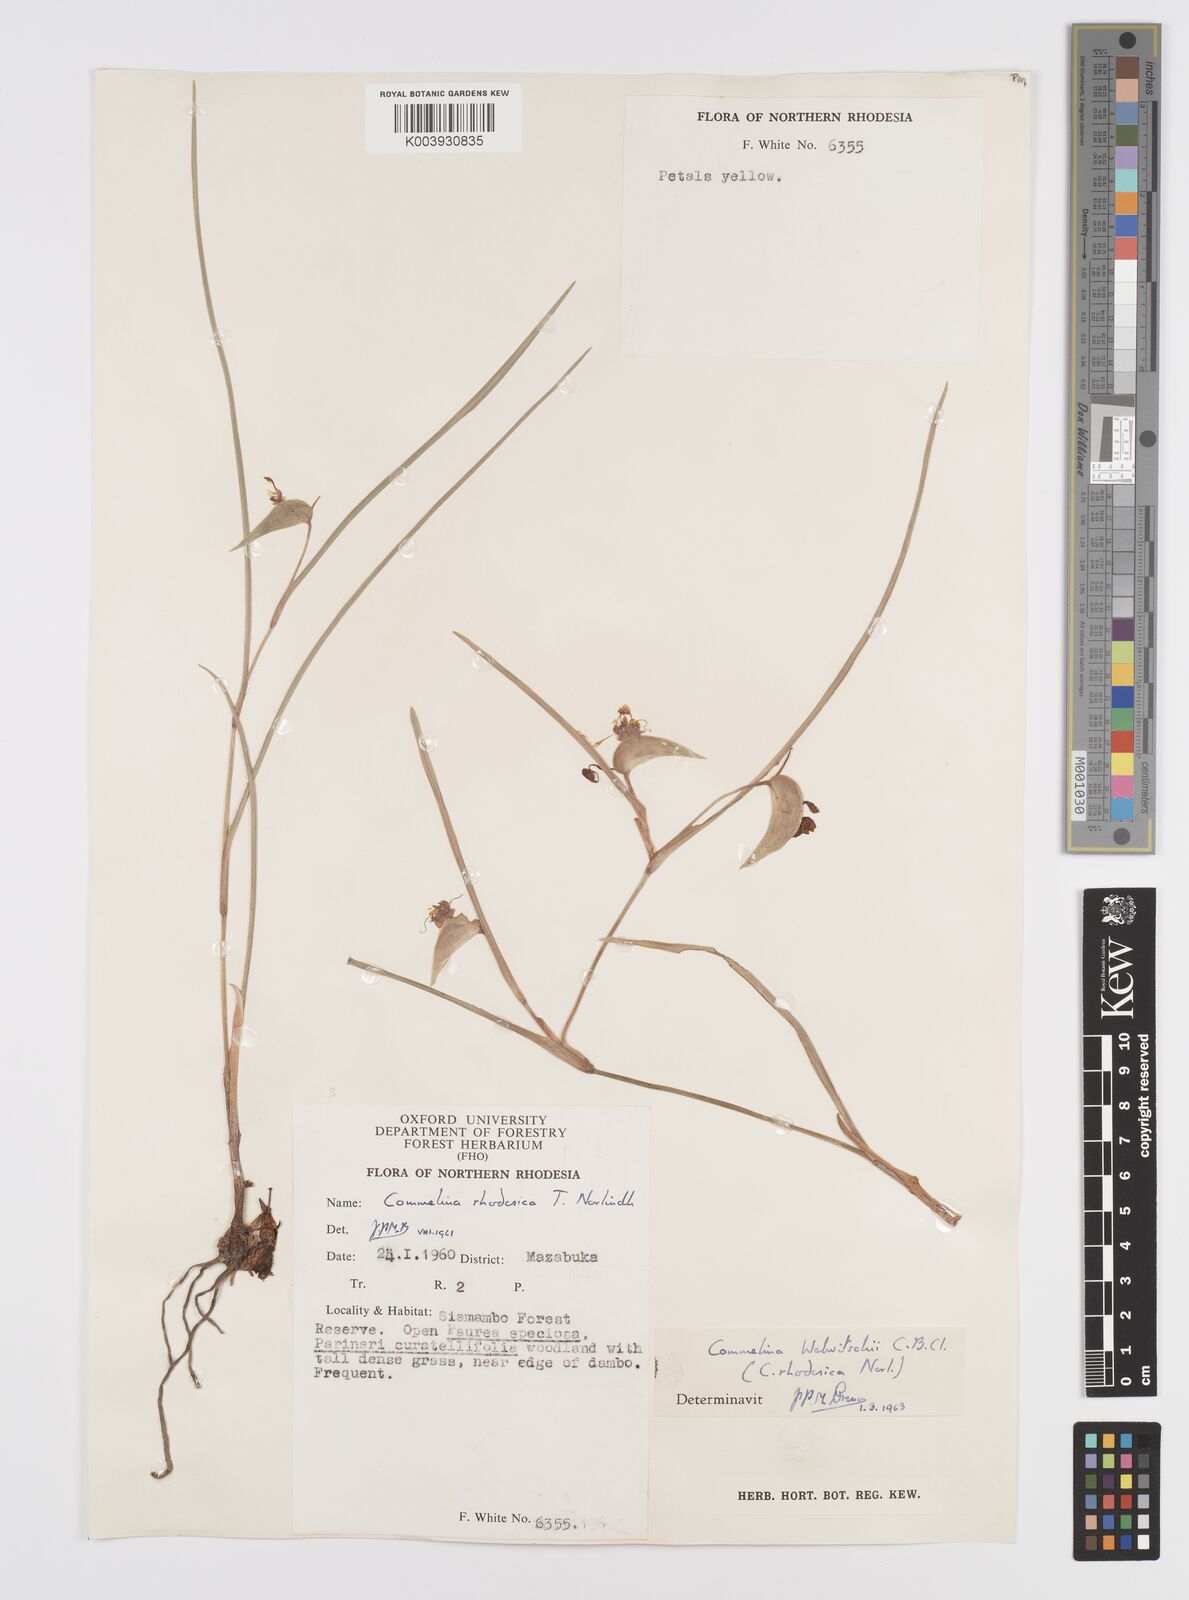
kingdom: Plantae
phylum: Tracheophyta
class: Liliopsida
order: Commelinales
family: Commelinaceae
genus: Commelina
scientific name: Commelina welwitschii
